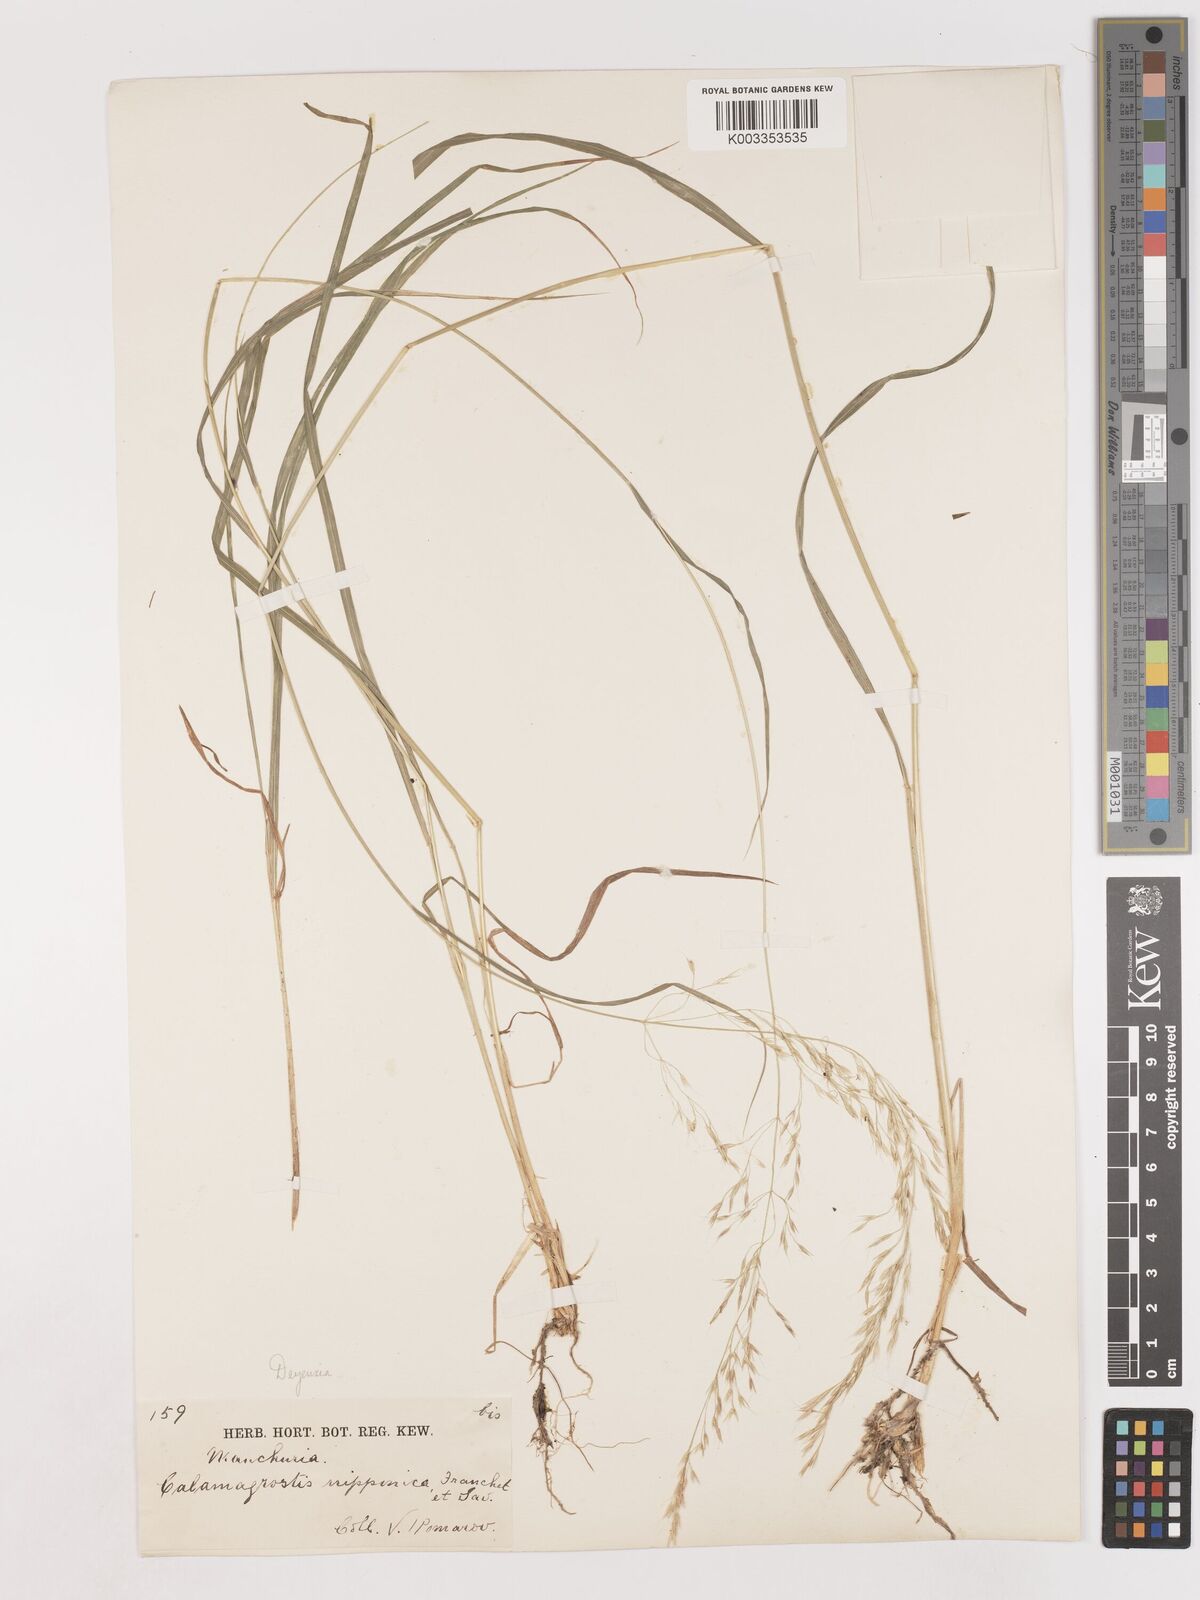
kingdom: Plantae
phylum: Tracheophyta
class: Liliopsida
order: Poales
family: Poaceae
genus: Calamagrostis
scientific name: Calamagrostis
